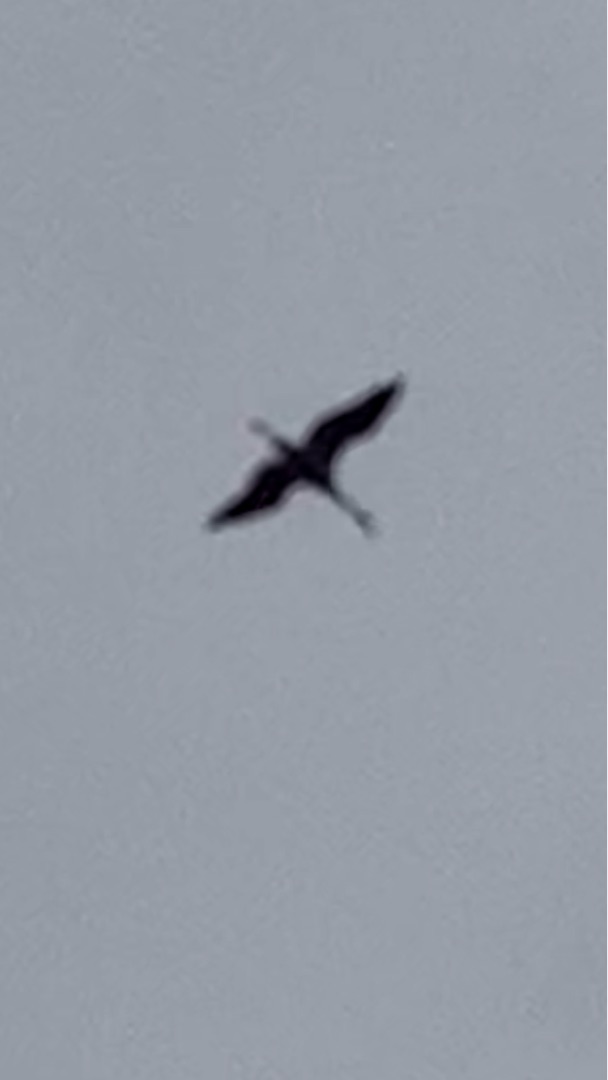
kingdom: Animalia
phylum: Chordata
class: Aves
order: Gruiformes
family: Gruidae
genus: Grus
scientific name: Grus grus
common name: Trane
